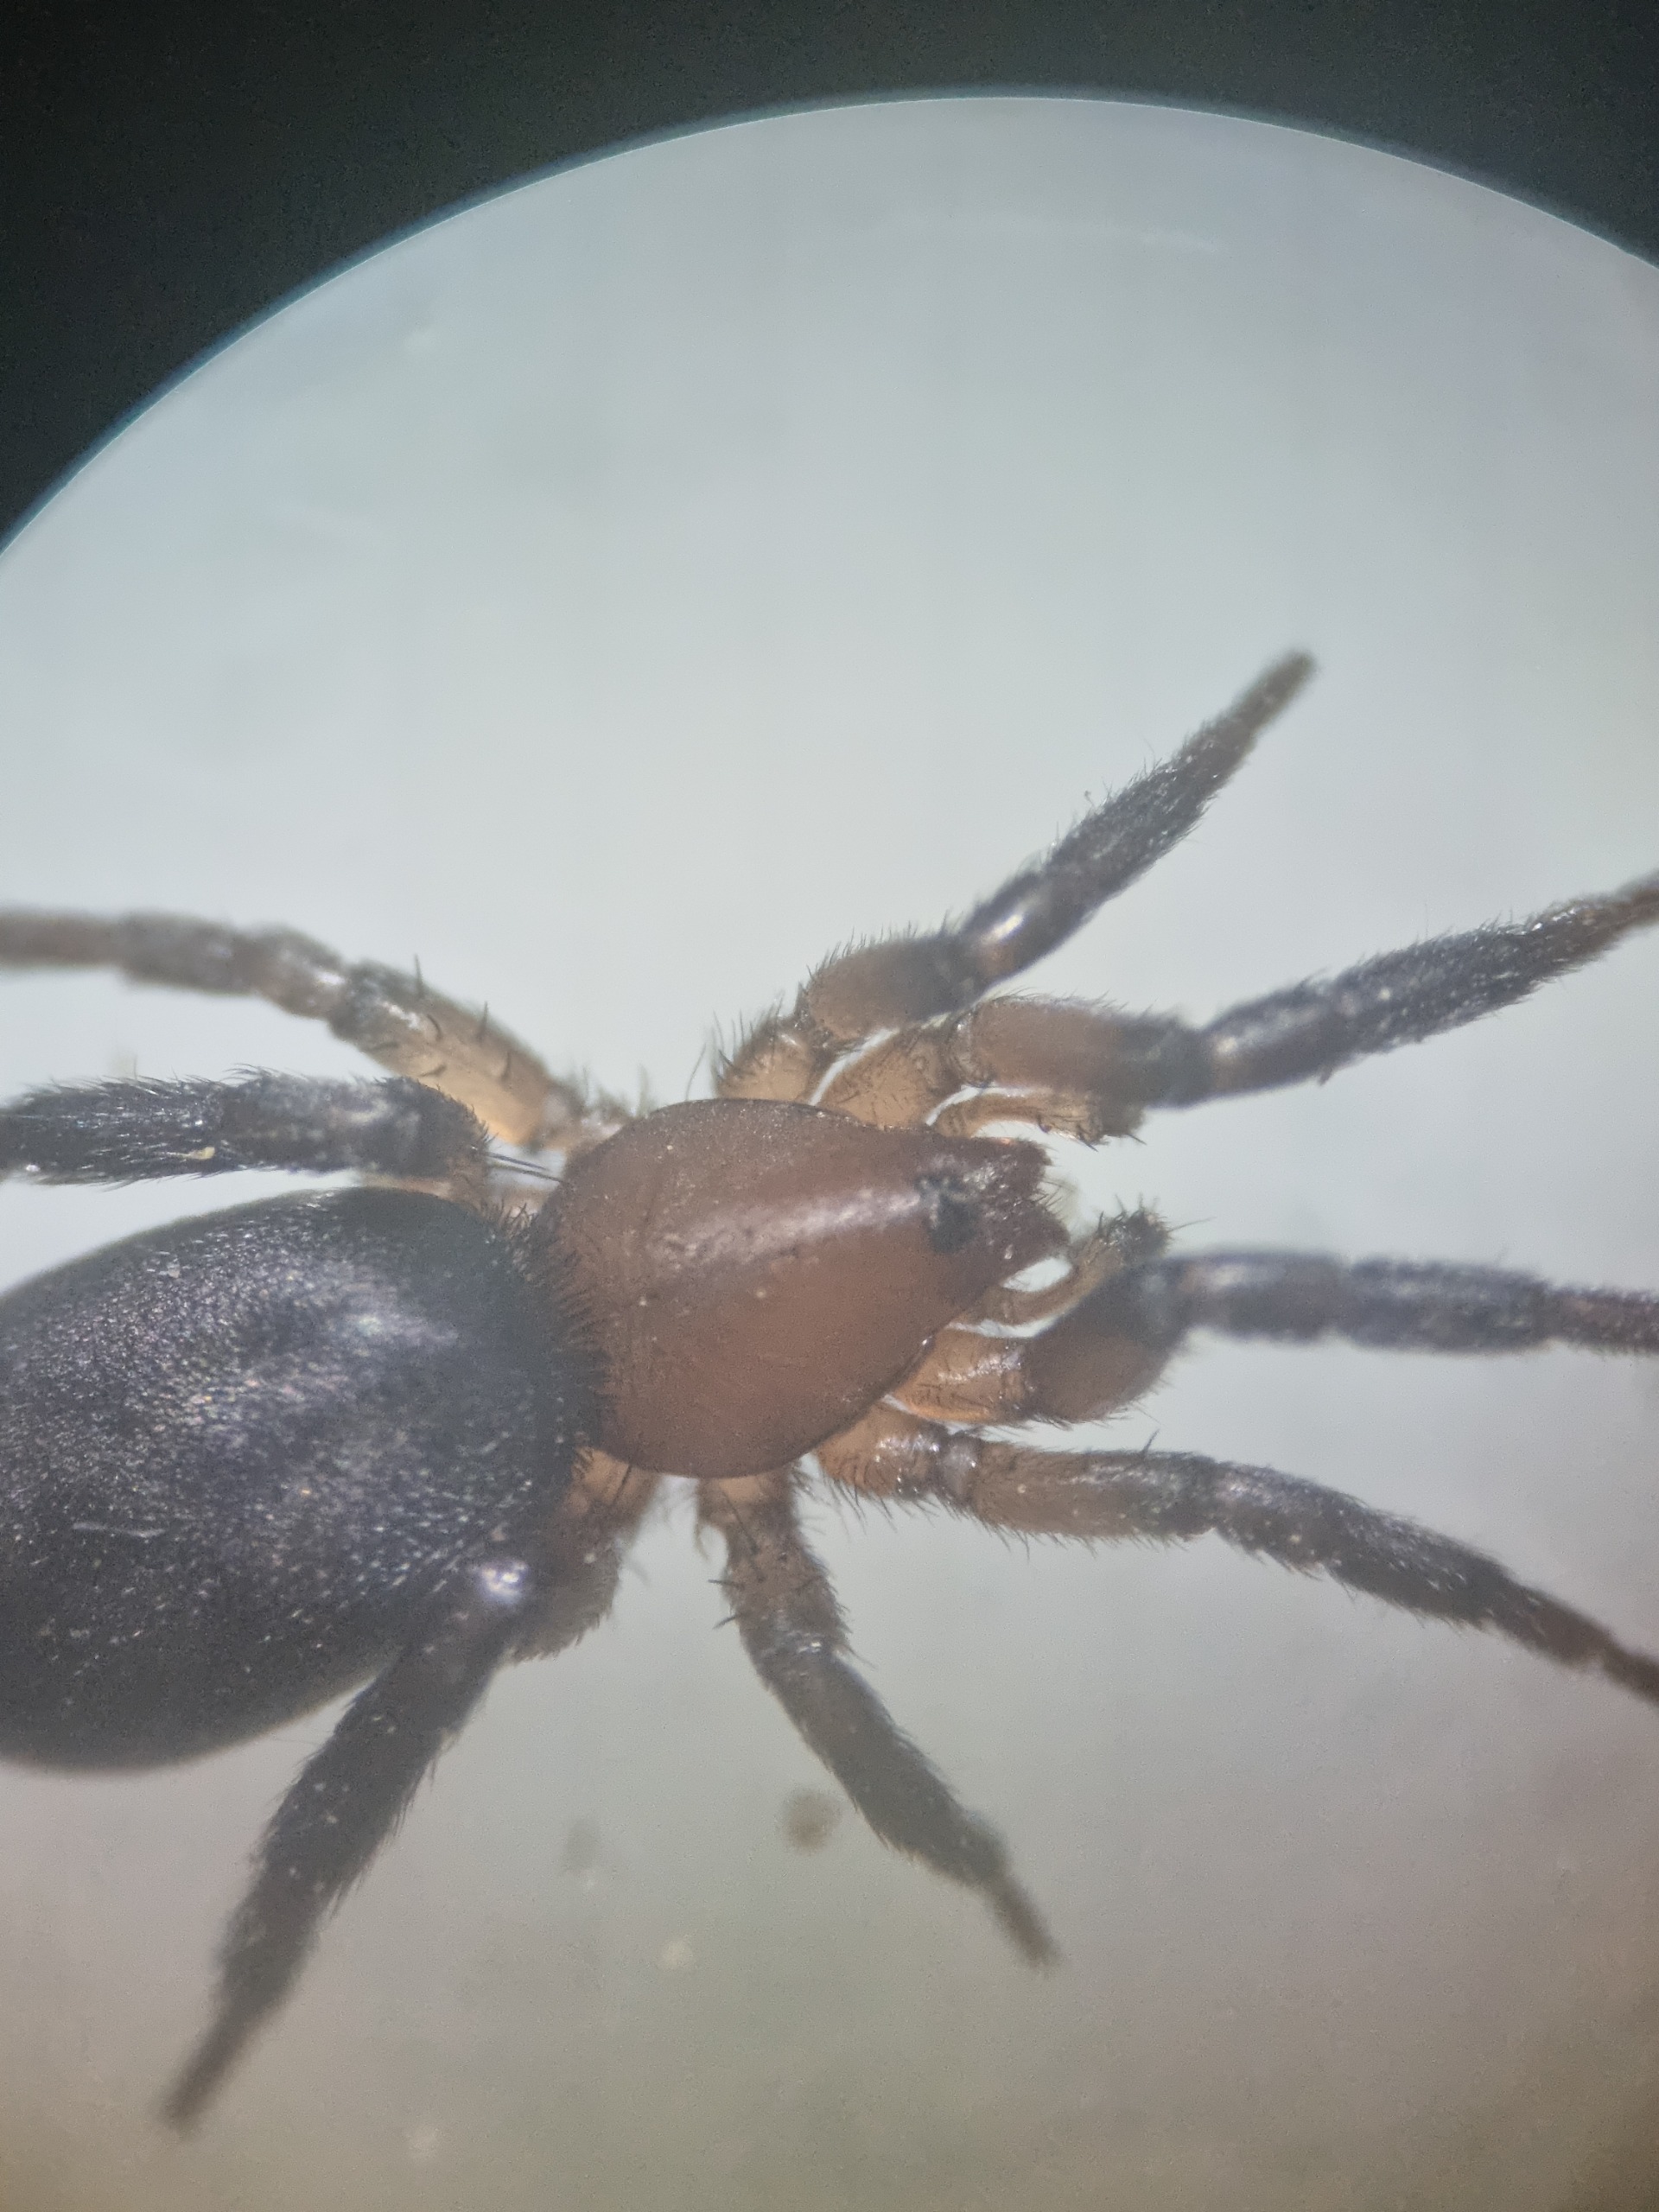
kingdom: Animalia
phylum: Arthropoda
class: Arachnida
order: Araneae
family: Gnaphosidae
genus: Zelotes
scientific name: Zelotes electus
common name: Rød ninja
